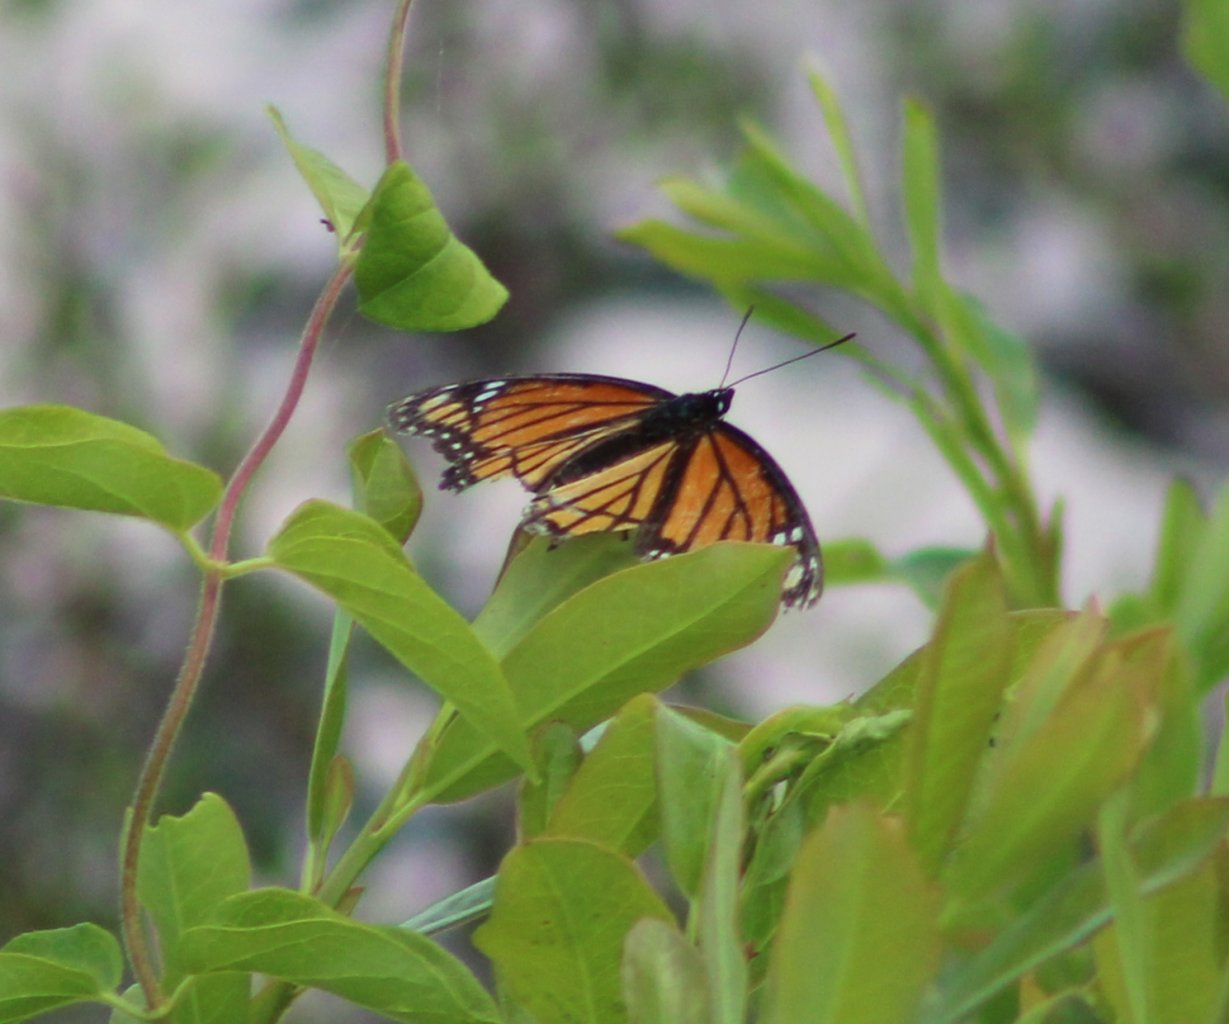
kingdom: Animalia
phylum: Arthropoda
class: Insecta
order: Lepidoptera
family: Nymphalidae
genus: Limenitis
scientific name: Limenitis archippus
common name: Viceroy
